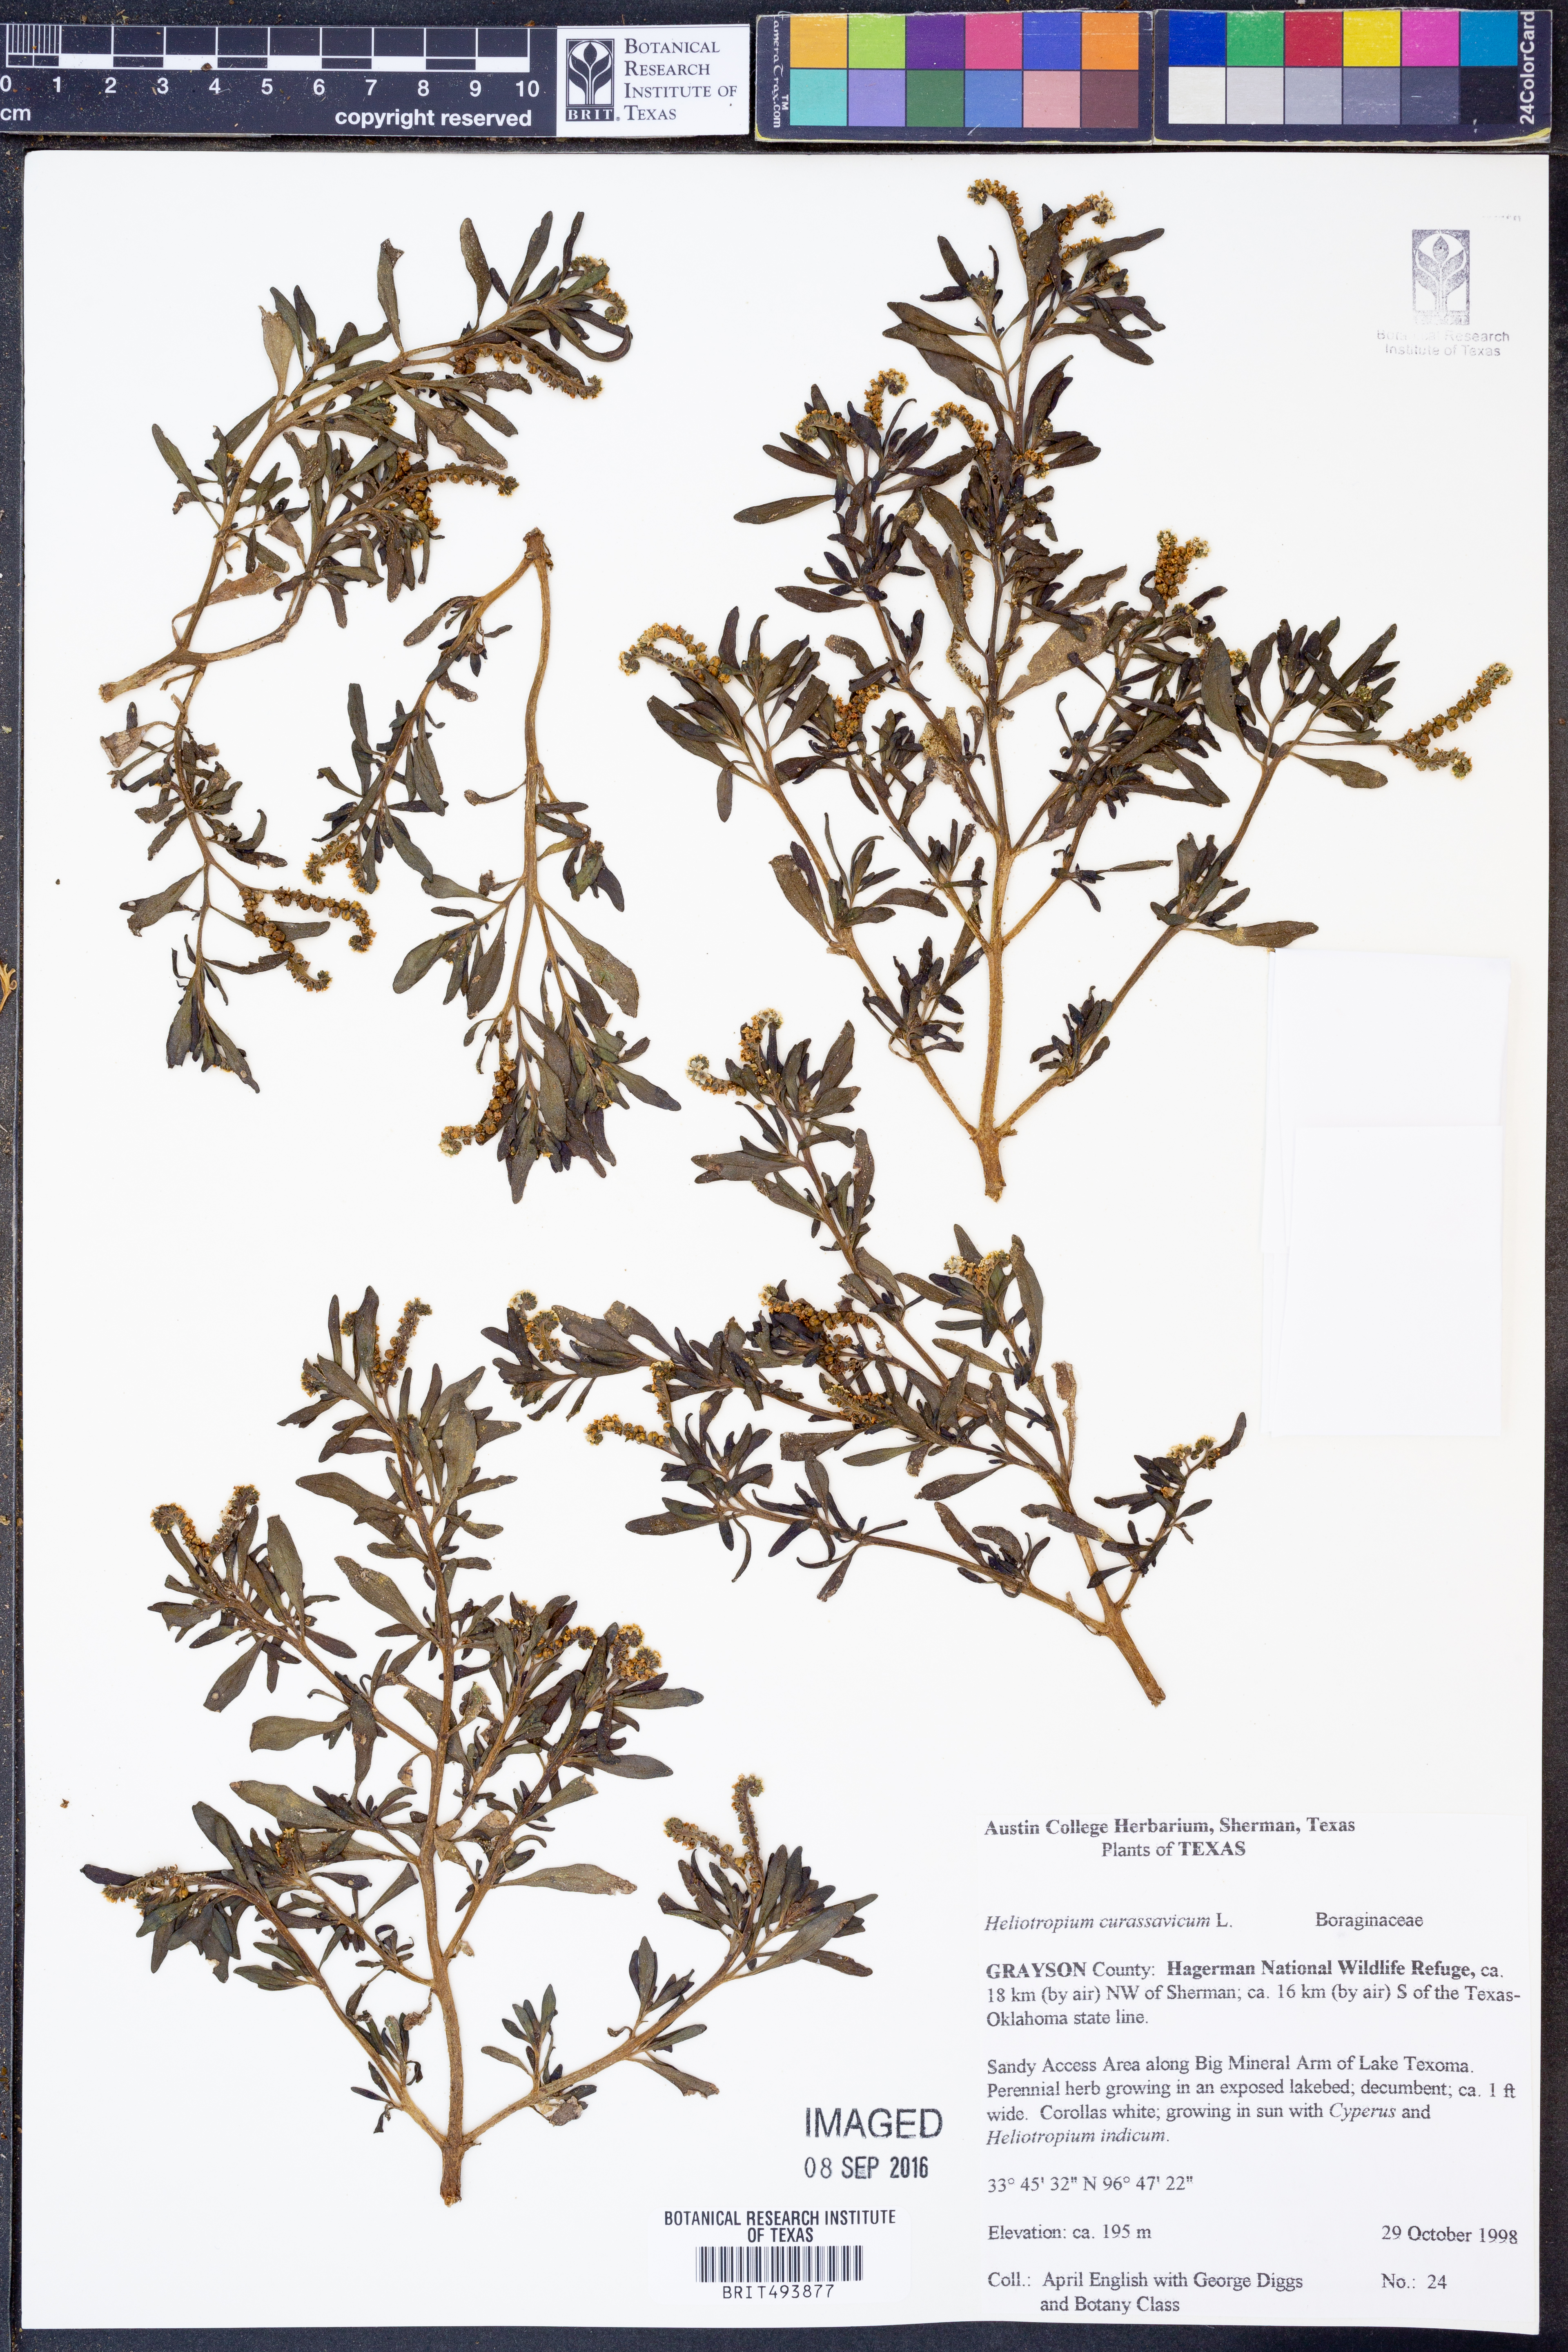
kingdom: Plantae
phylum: Tracheophyta
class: Magnoliopsida
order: Boraginales
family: Heliotropiaceae
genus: Heliotropium
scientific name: Heliotropium curassavicum
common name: Seaside heliotrope
